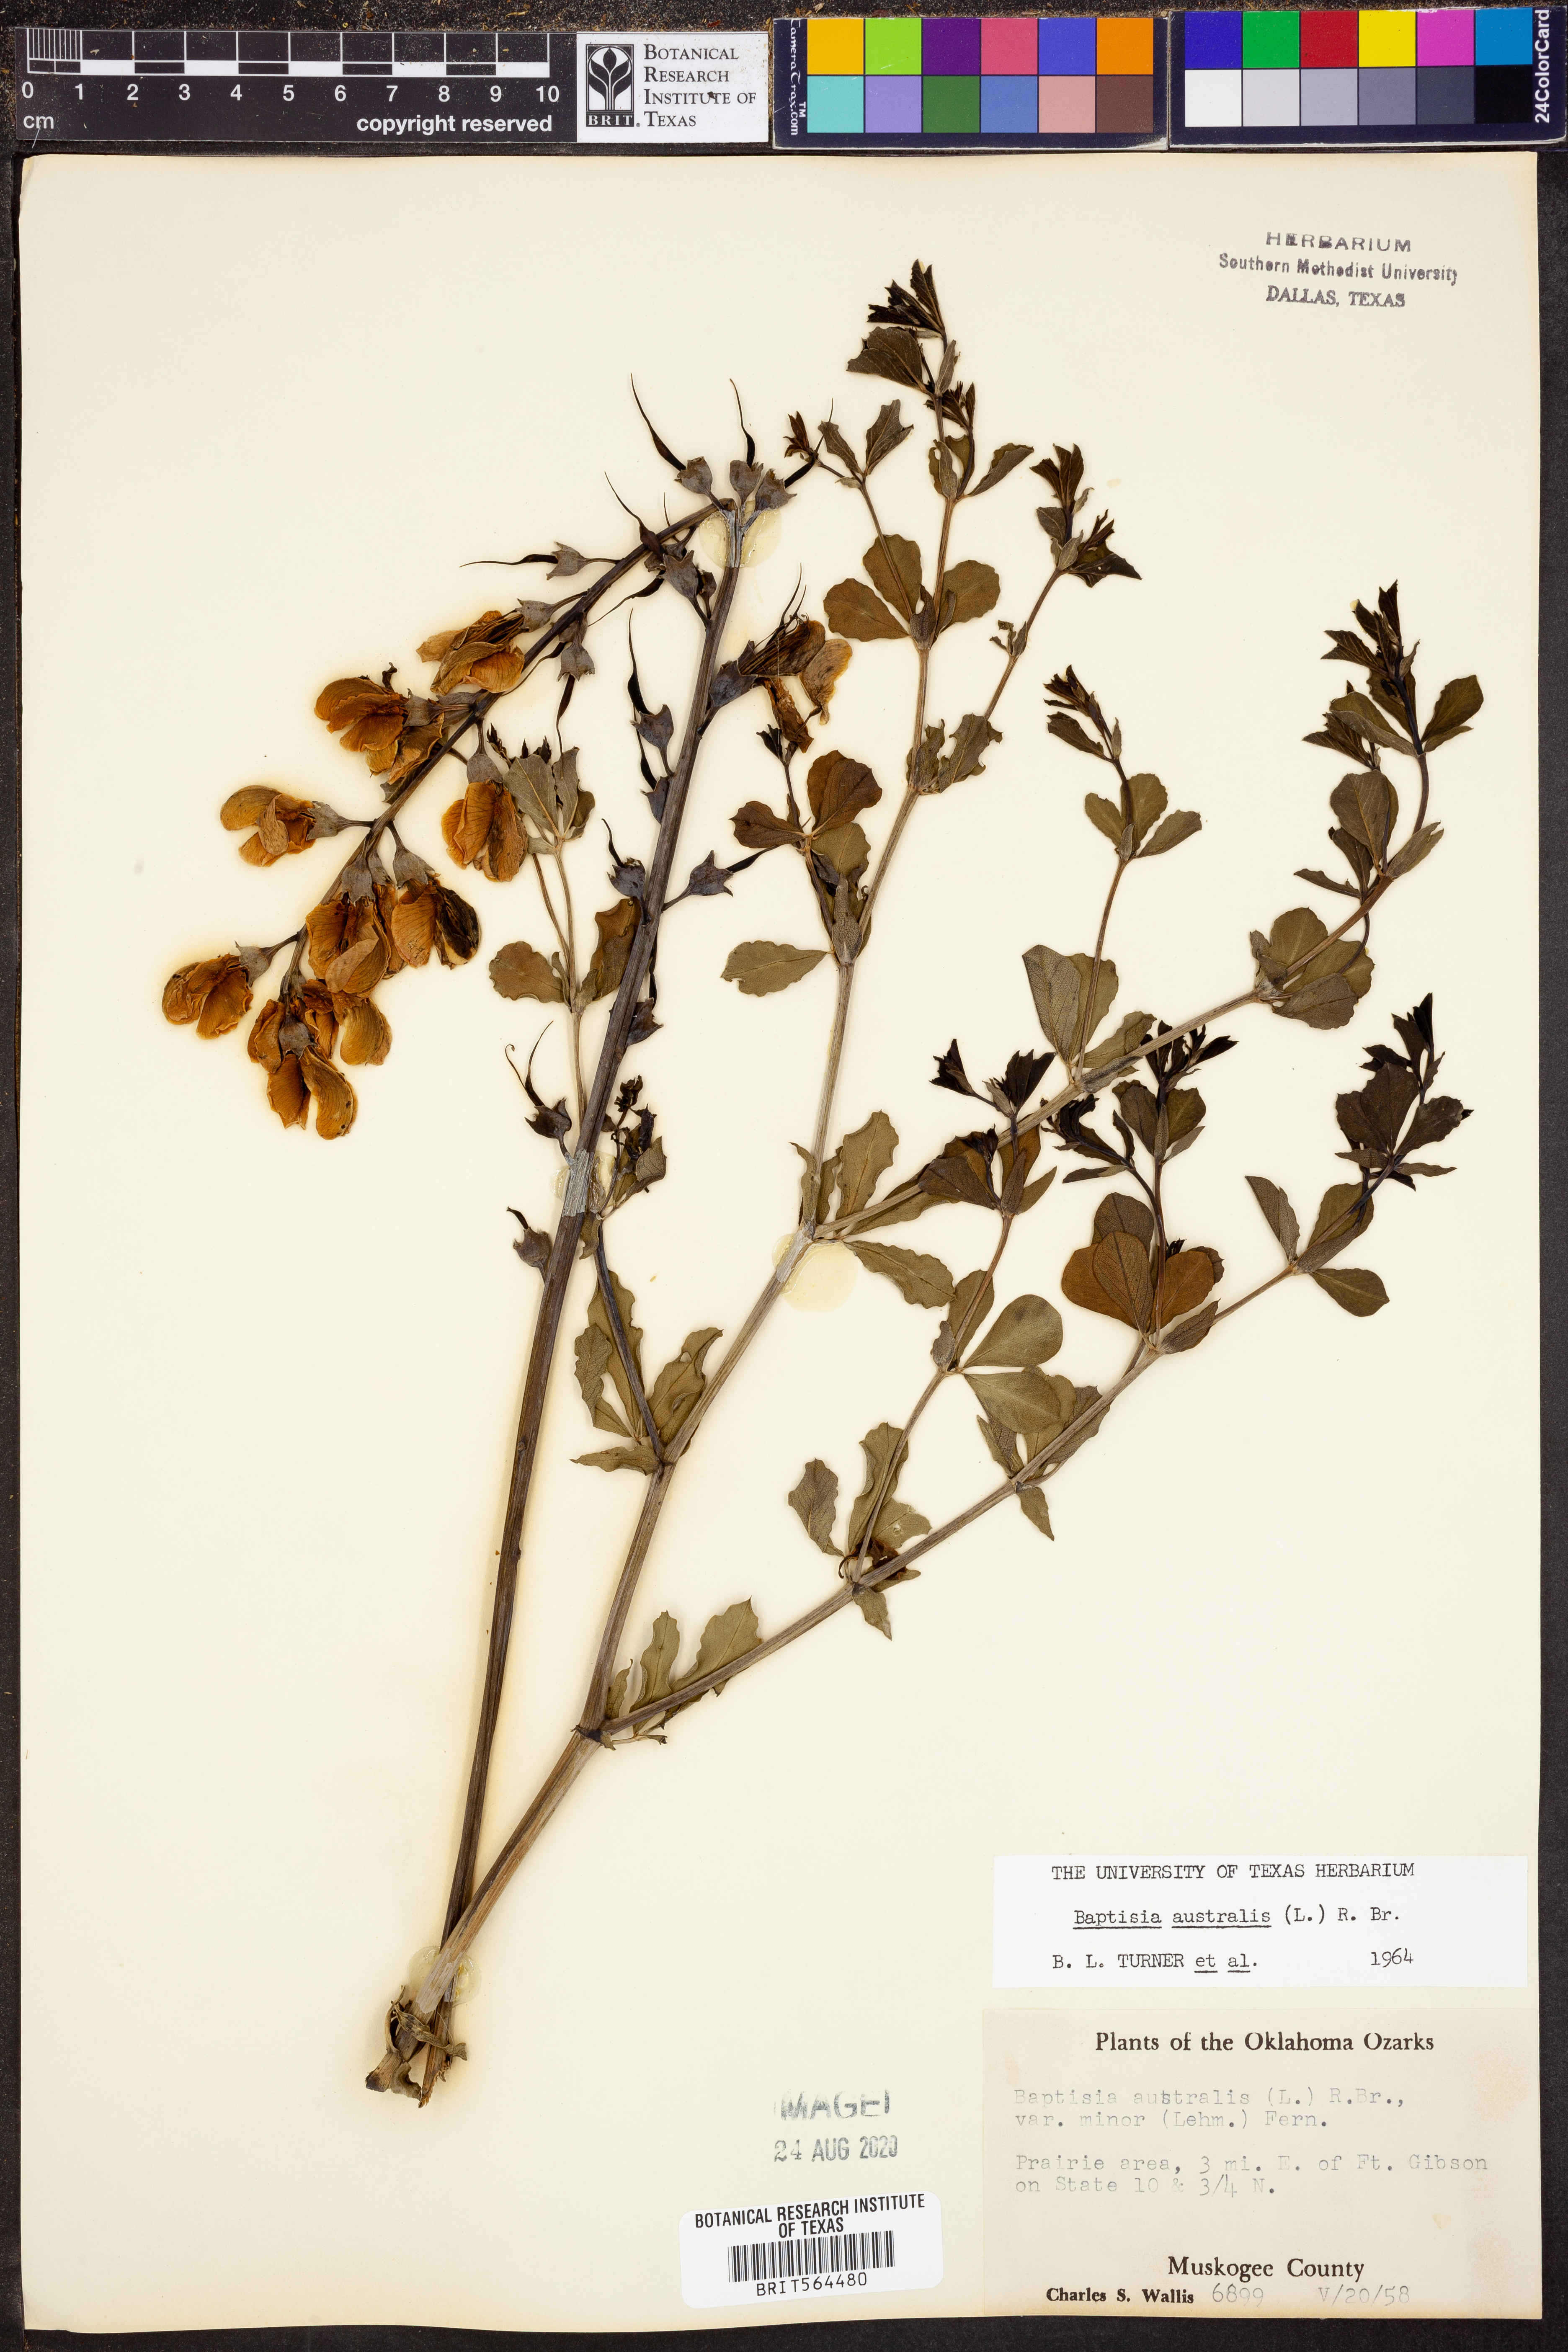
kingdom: Plantae
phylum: Tracheophyta
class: Magnoliopsida
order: Fabales
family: Fabaceae
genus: Baptisia
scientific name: Baptisia australis
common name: Blue false indigo
